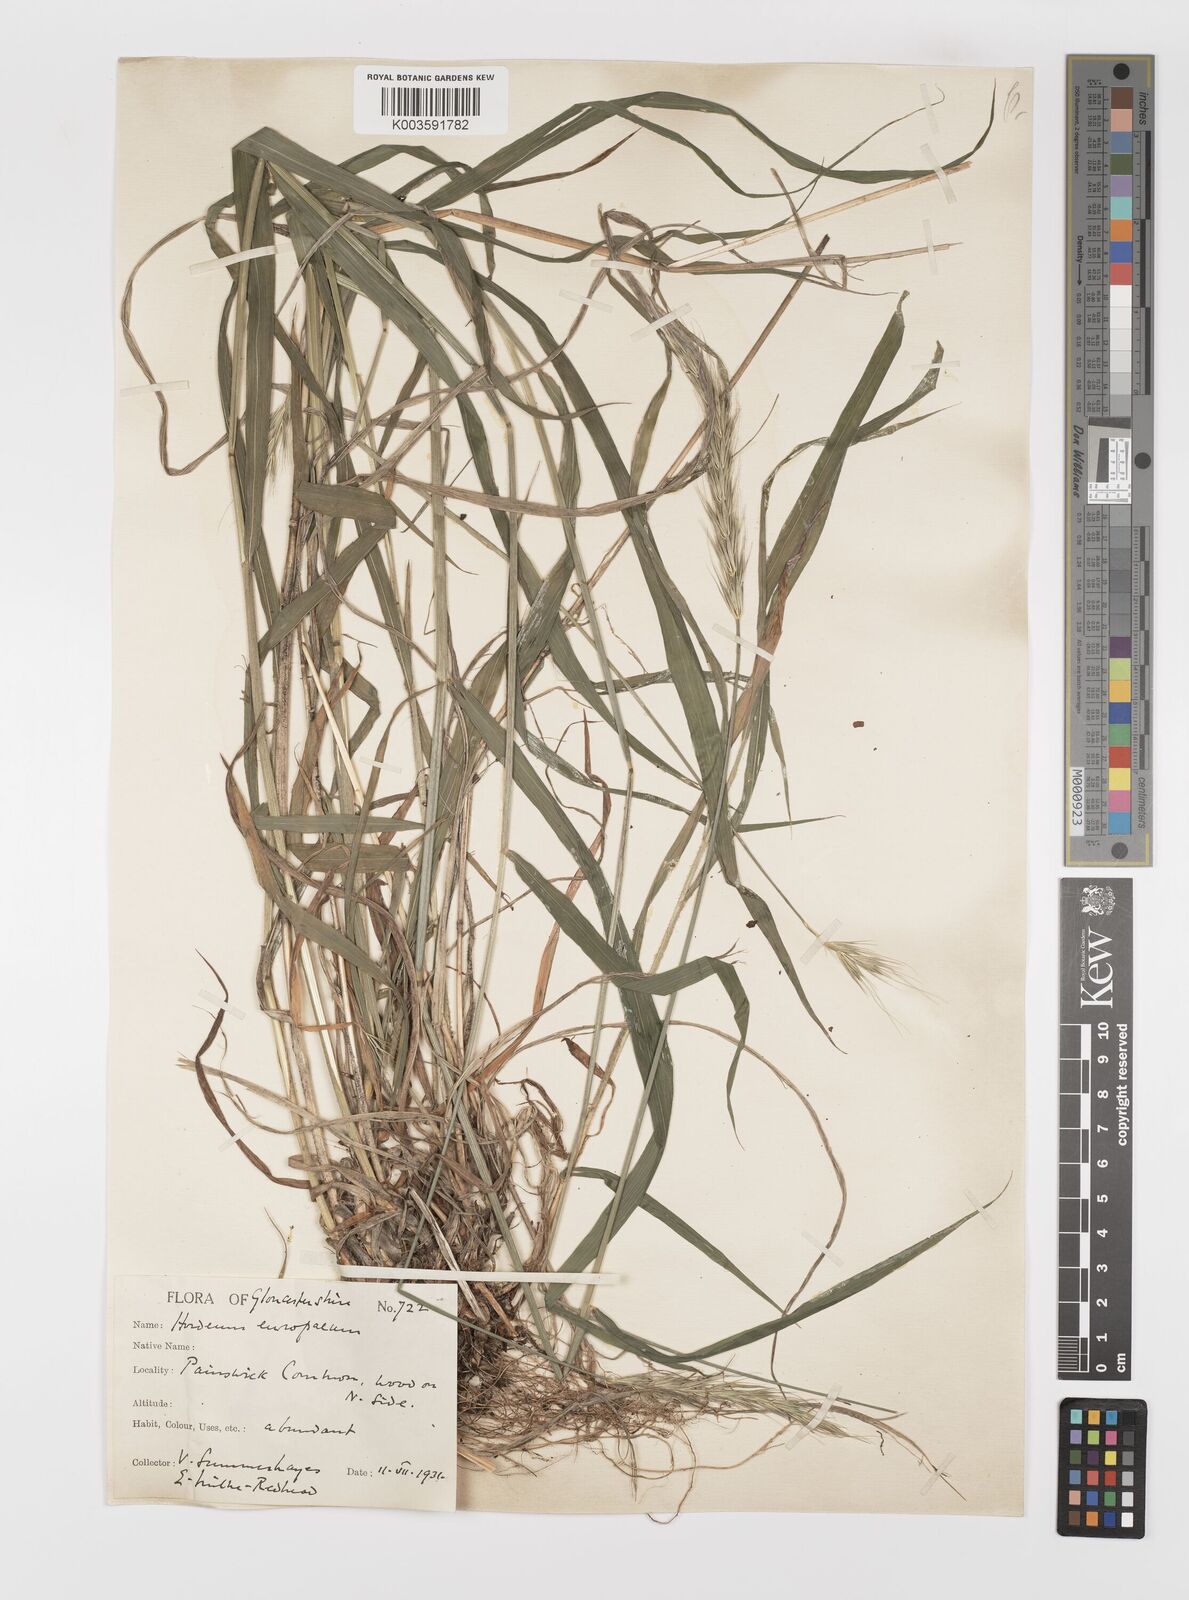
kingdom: Plantae
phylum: Tracheophyta
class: Liliopsida
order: Poales
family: Poaceae
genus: Hordelymus
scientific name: Hordelymus europaeus
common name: Wood-barley
